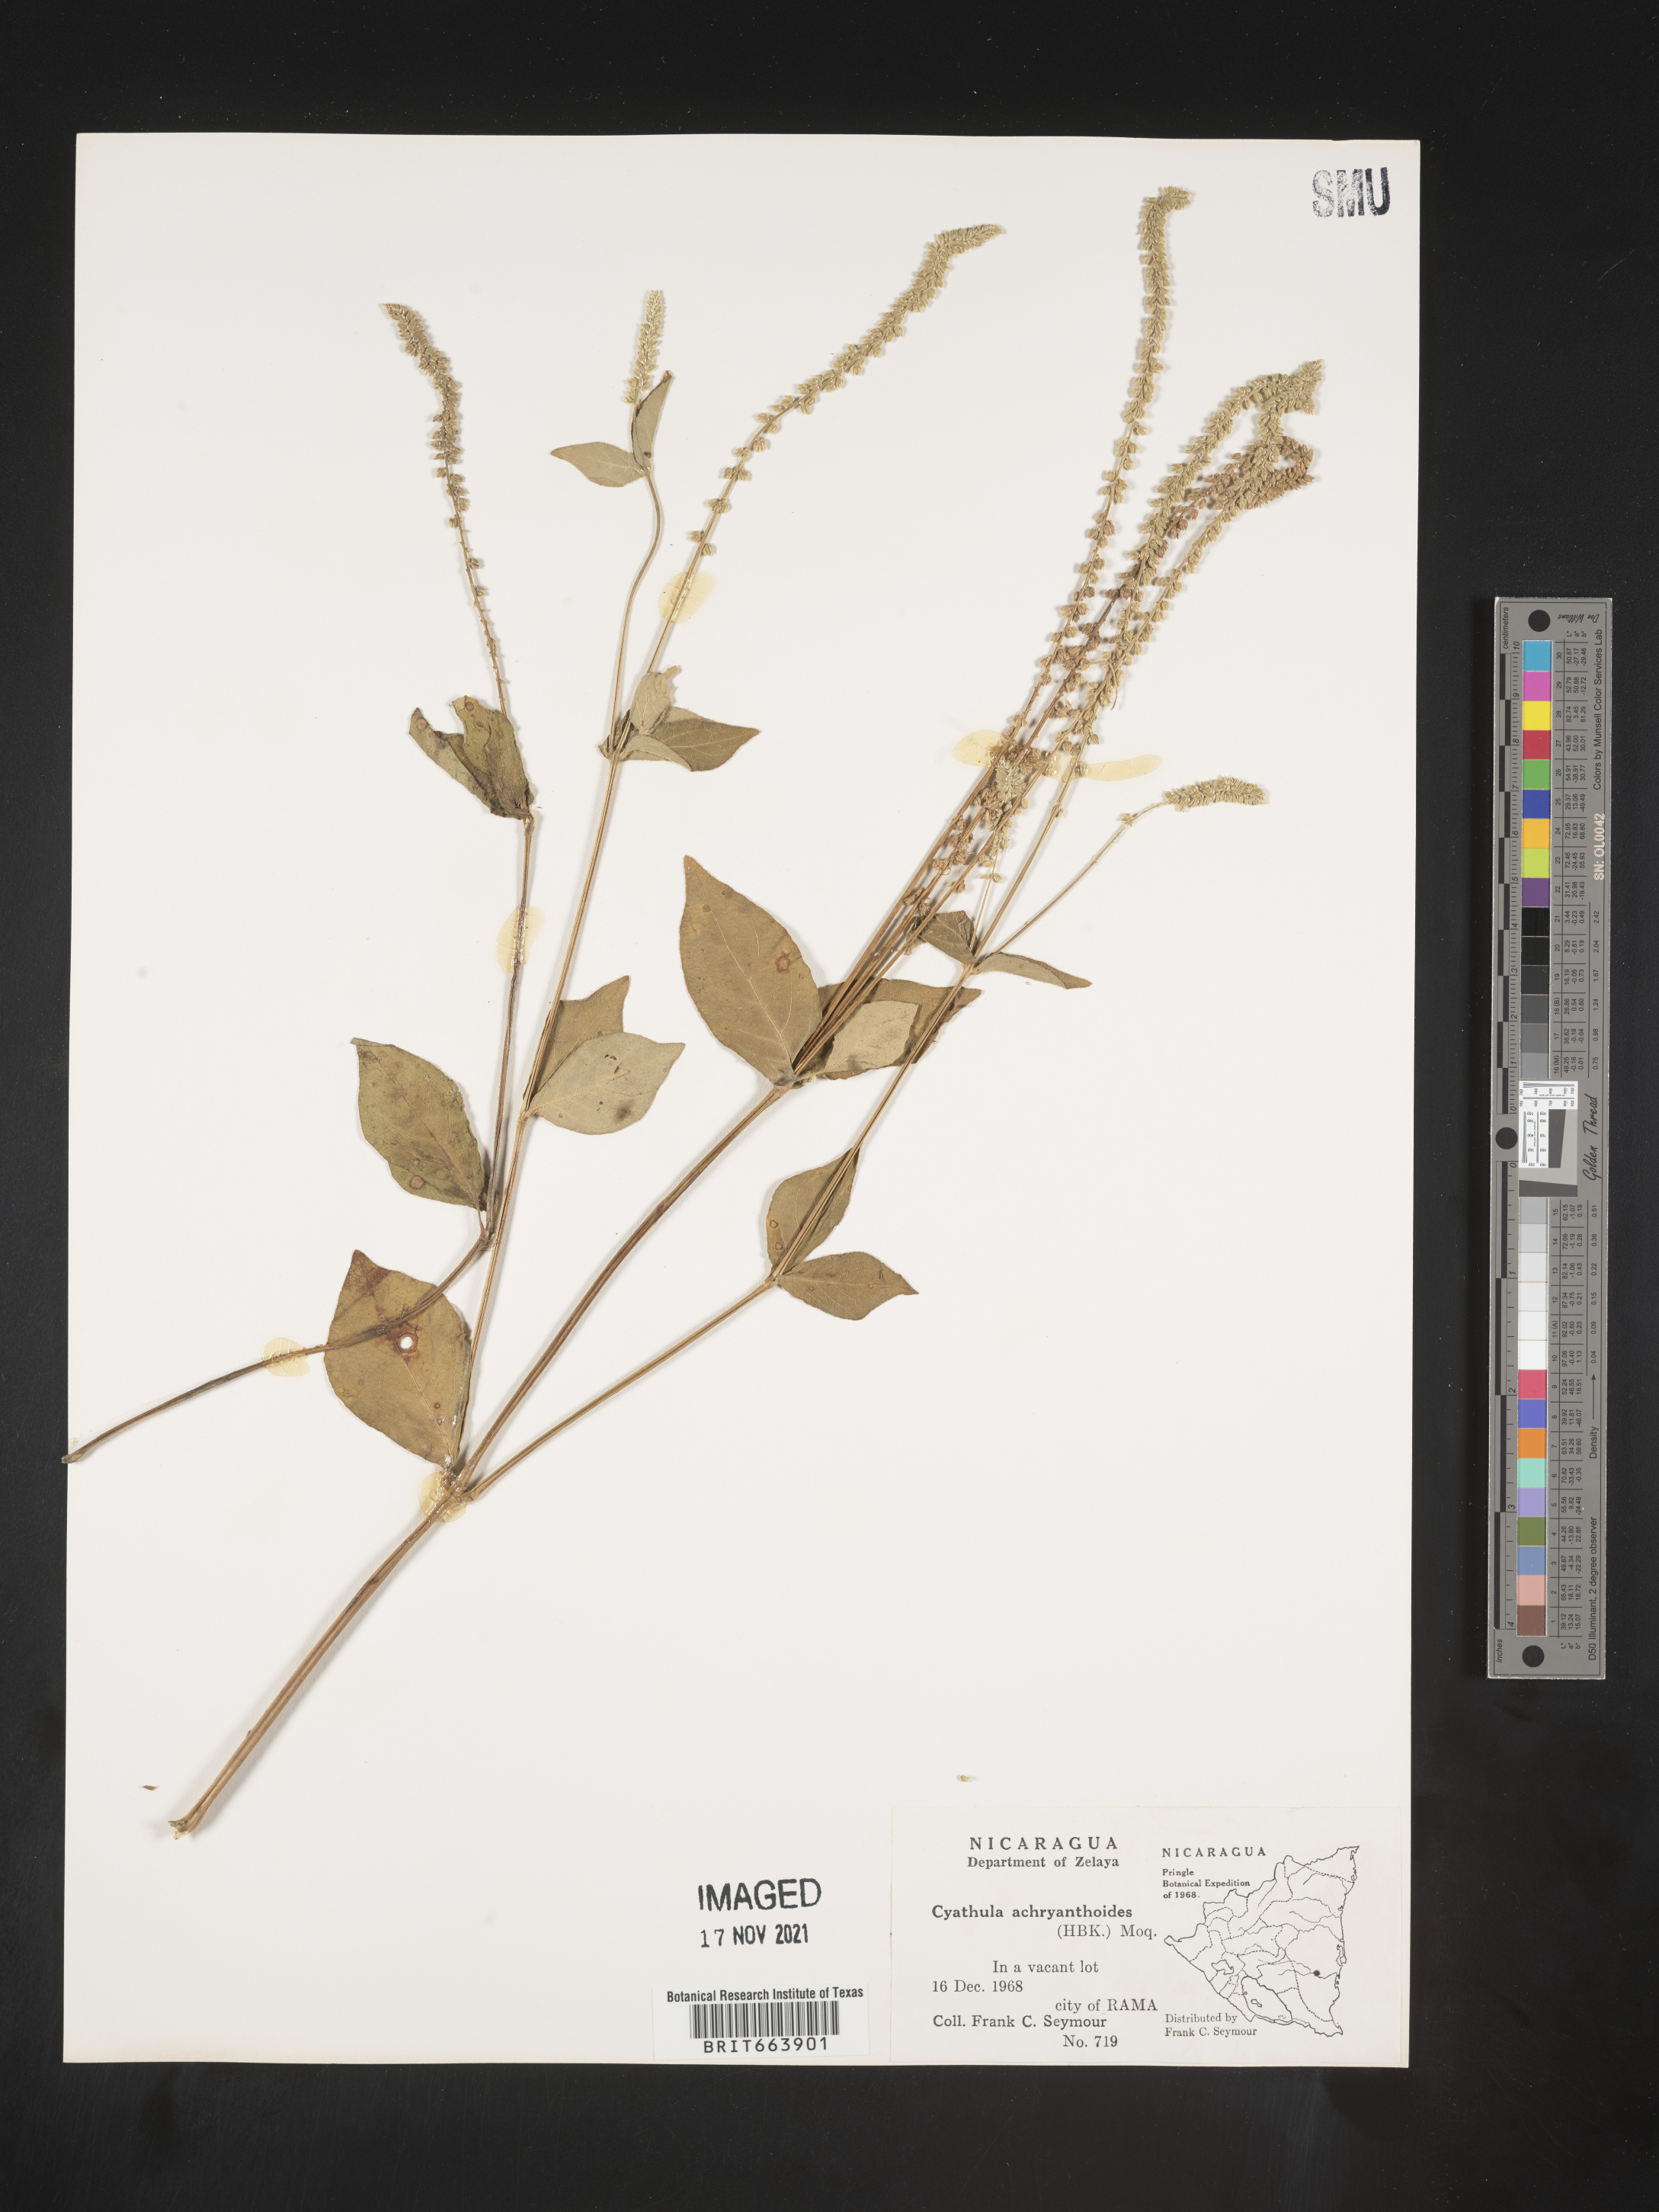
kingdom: Plantae
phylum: Tracheophyta
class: Magnoliopsida
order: Caryophyllales
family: Amaranthaceae
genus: Cyathula
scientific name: Cyathula
